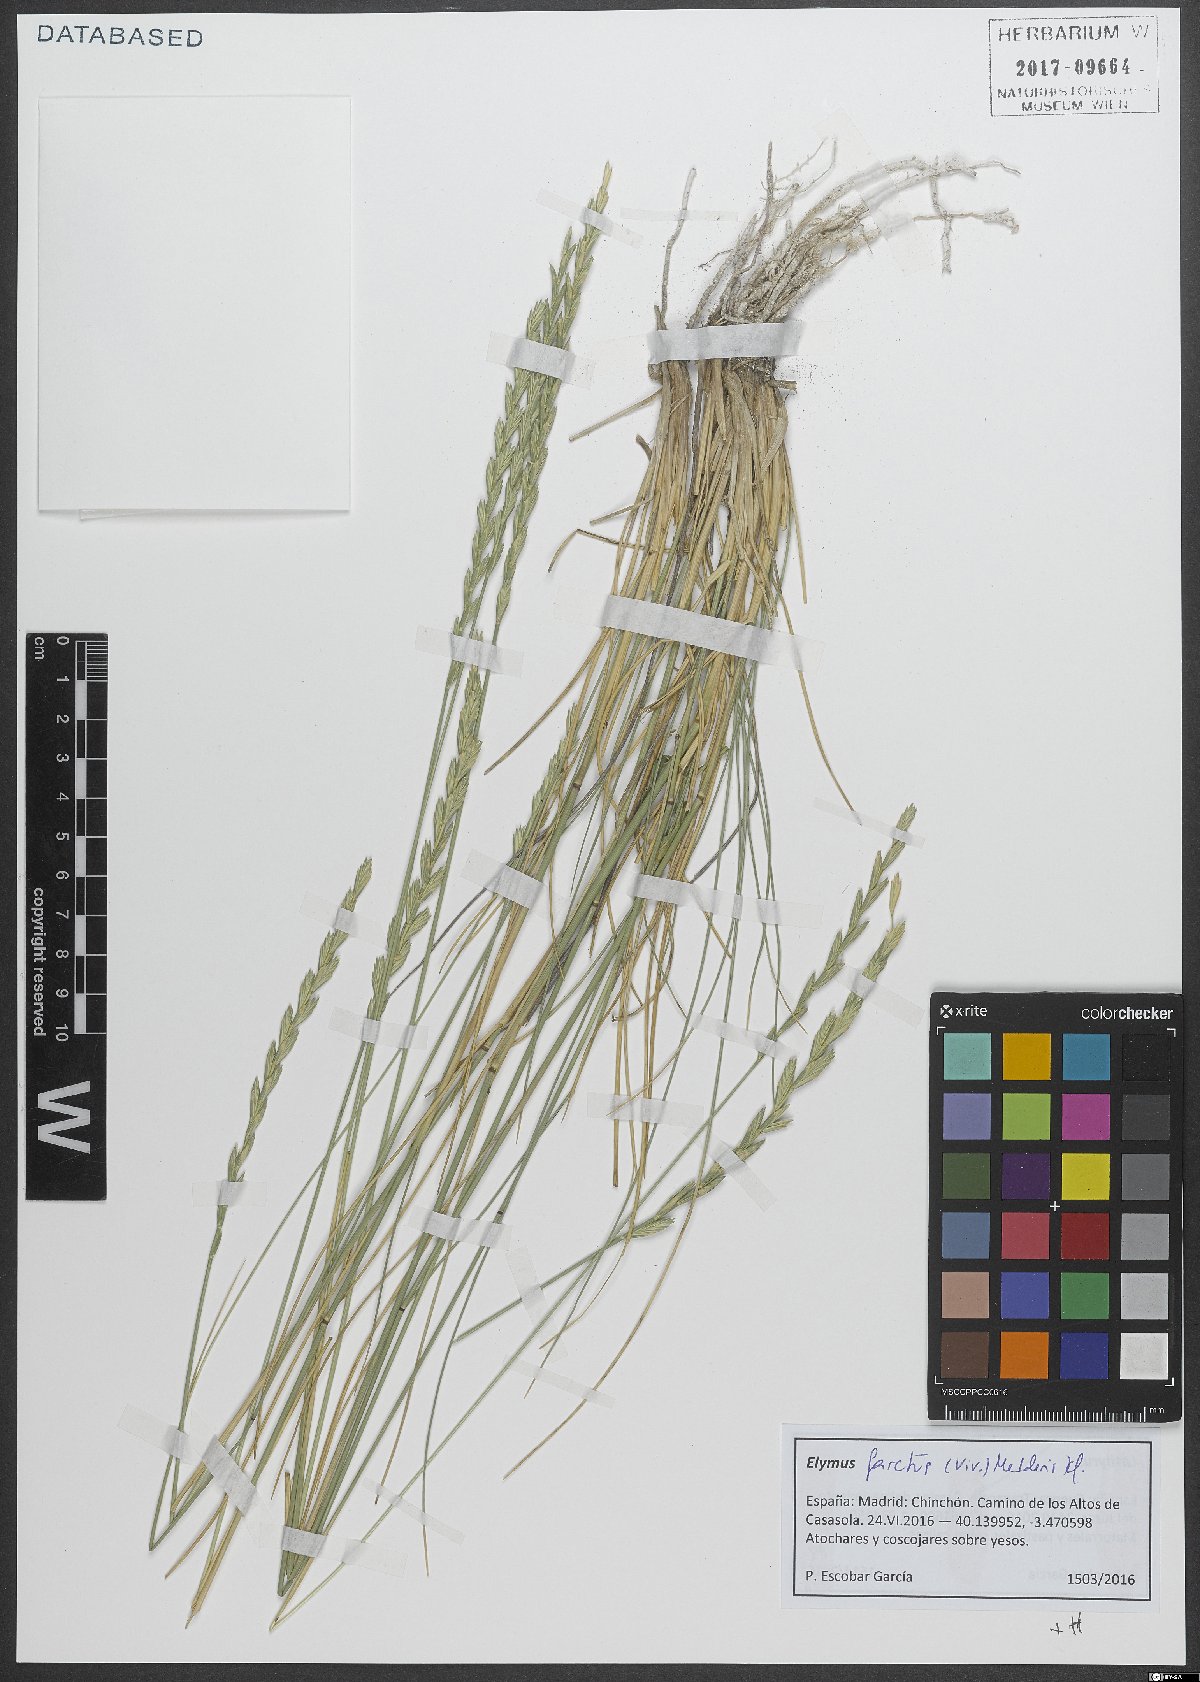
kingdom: Plantae
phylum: Tracheophyta
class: Liliopsida
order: Poales
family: Poaceae
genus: Thinopyrum
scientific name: Thinopyrum junceum
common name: Russian wheatgrass
